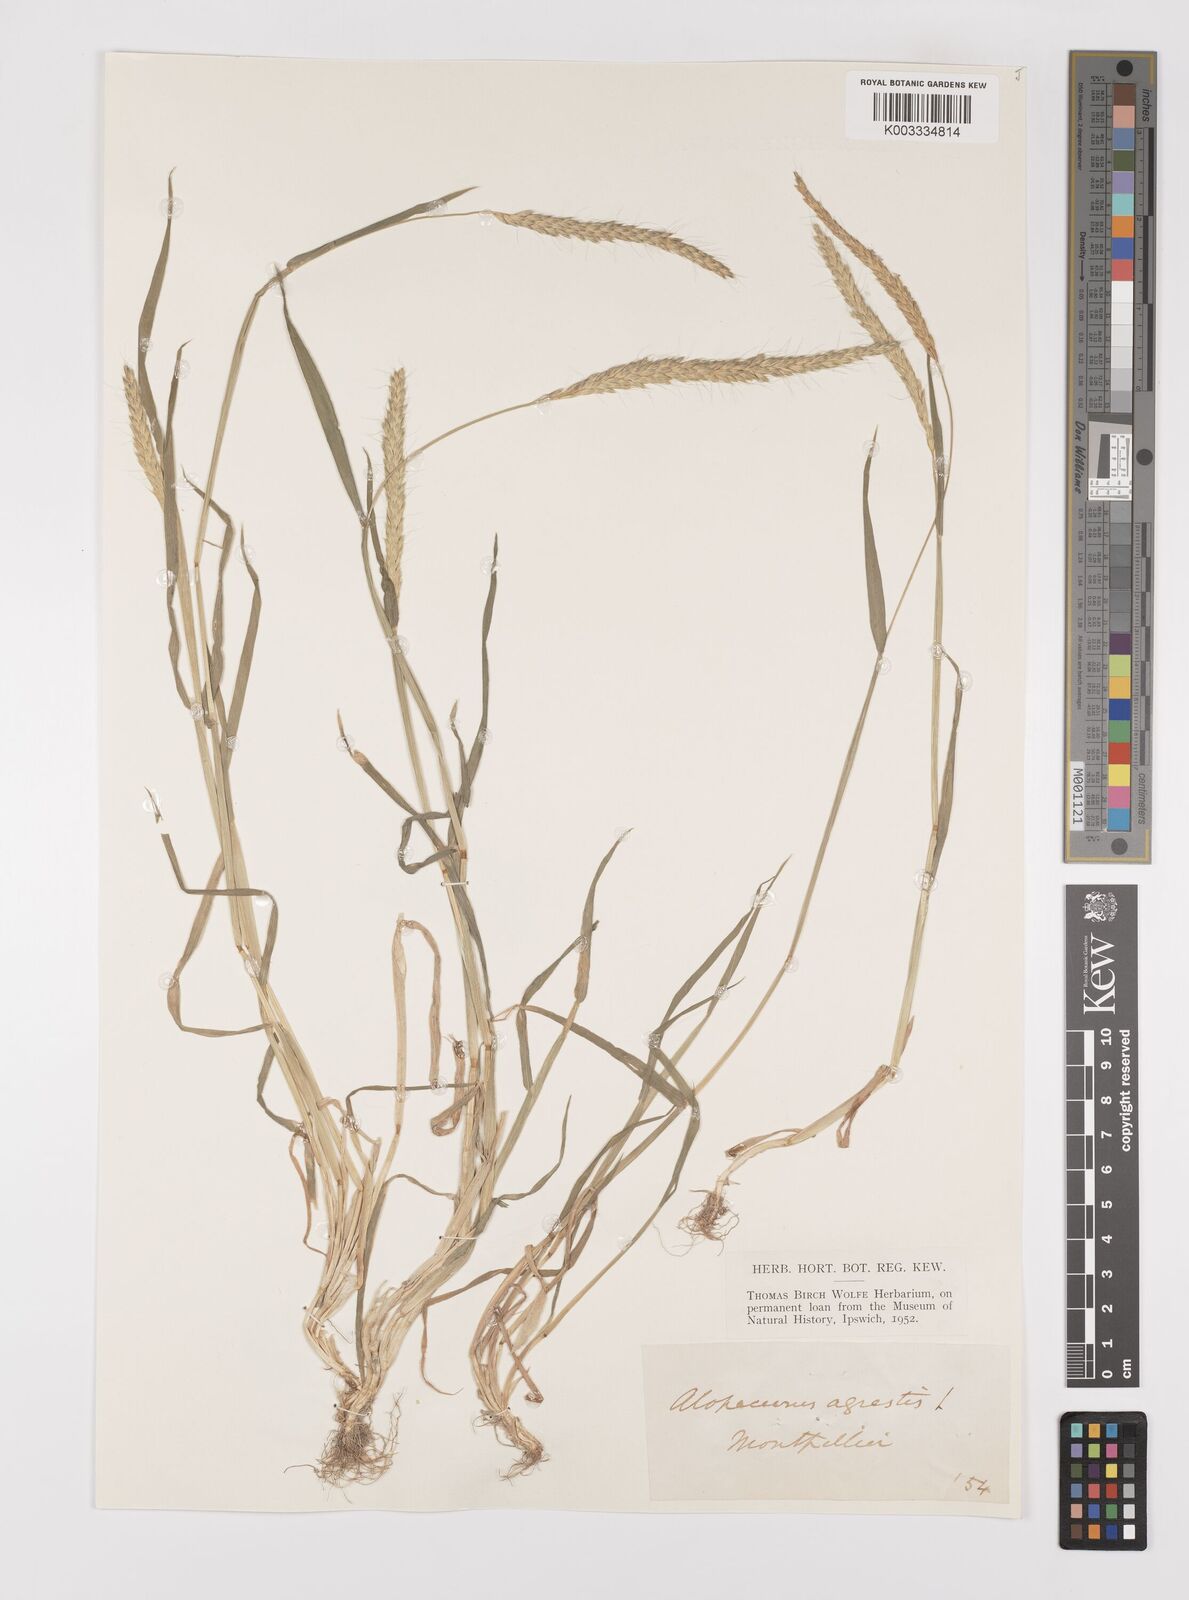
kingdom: Plantae
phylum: Tracheophyta
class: Liliopsida
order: Poales
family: Poaceae
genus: Alopecurus
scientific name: Alopecurus myosuroides
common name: Black-grass
